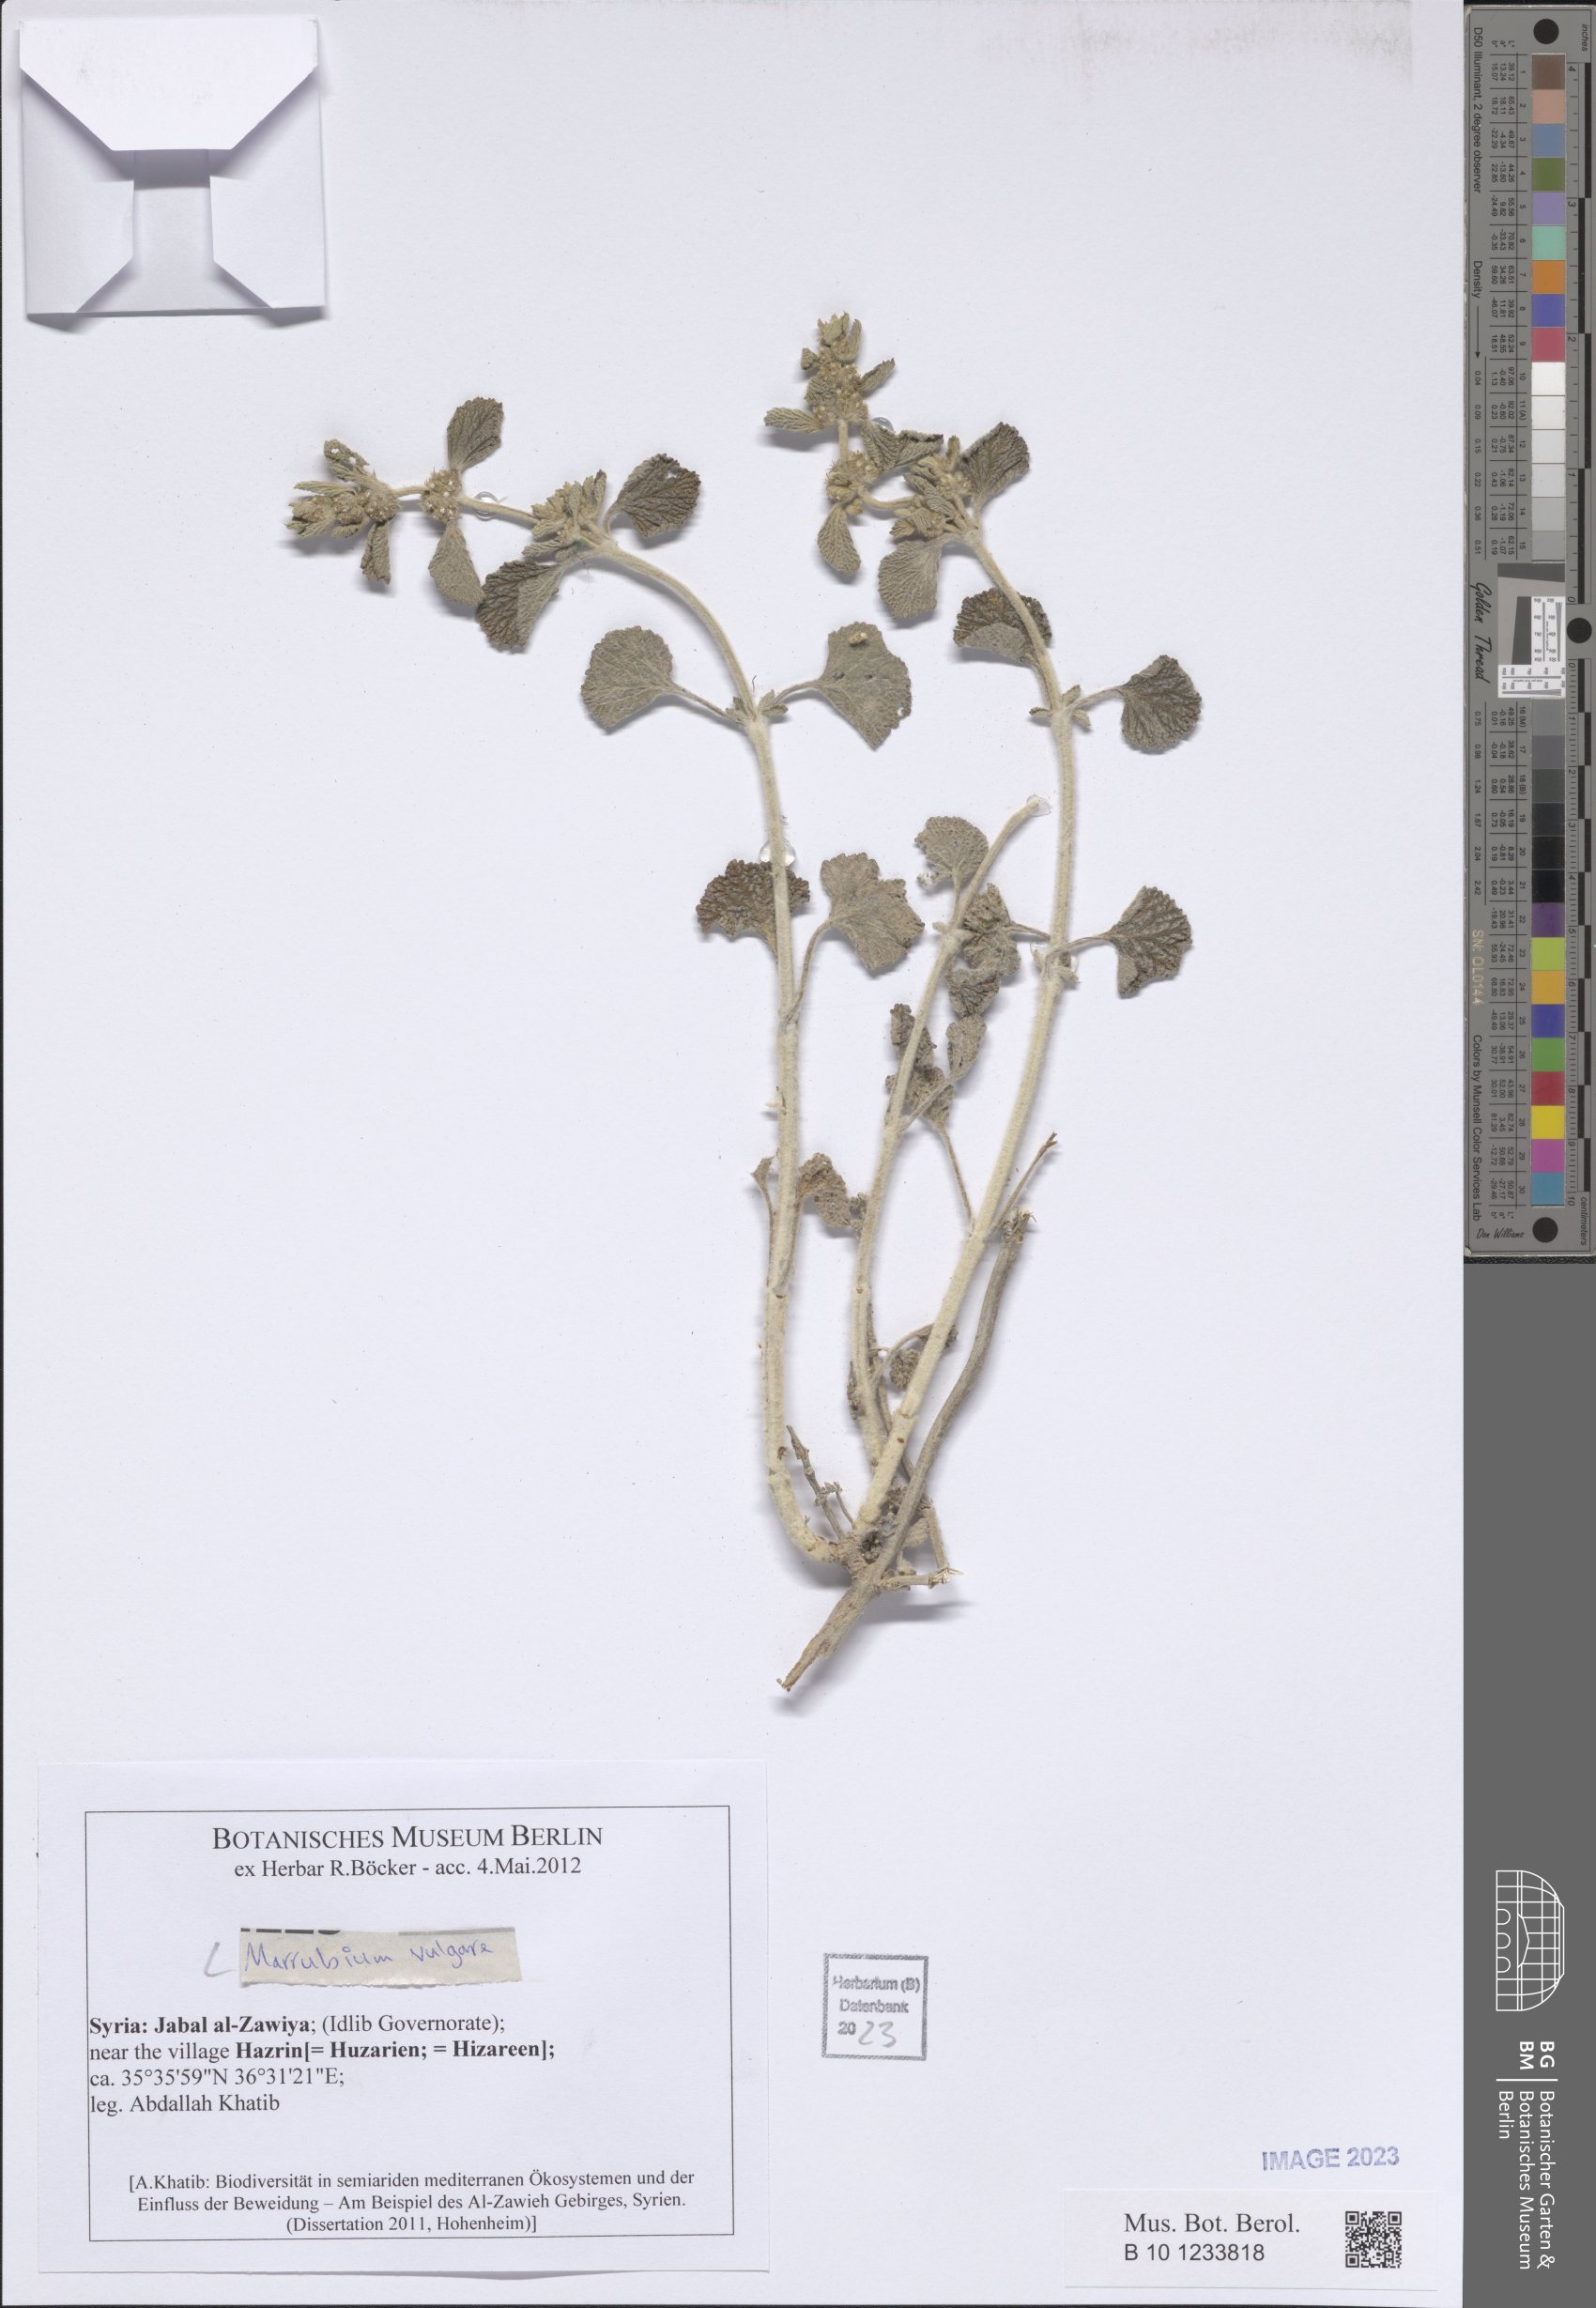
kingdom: Plantae
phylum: Tracheophyta
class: Magnoliopsida
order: Lamiales
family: Lamiaceae
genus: Marrubium
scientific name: Marrubium vulgare
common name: Horehound
